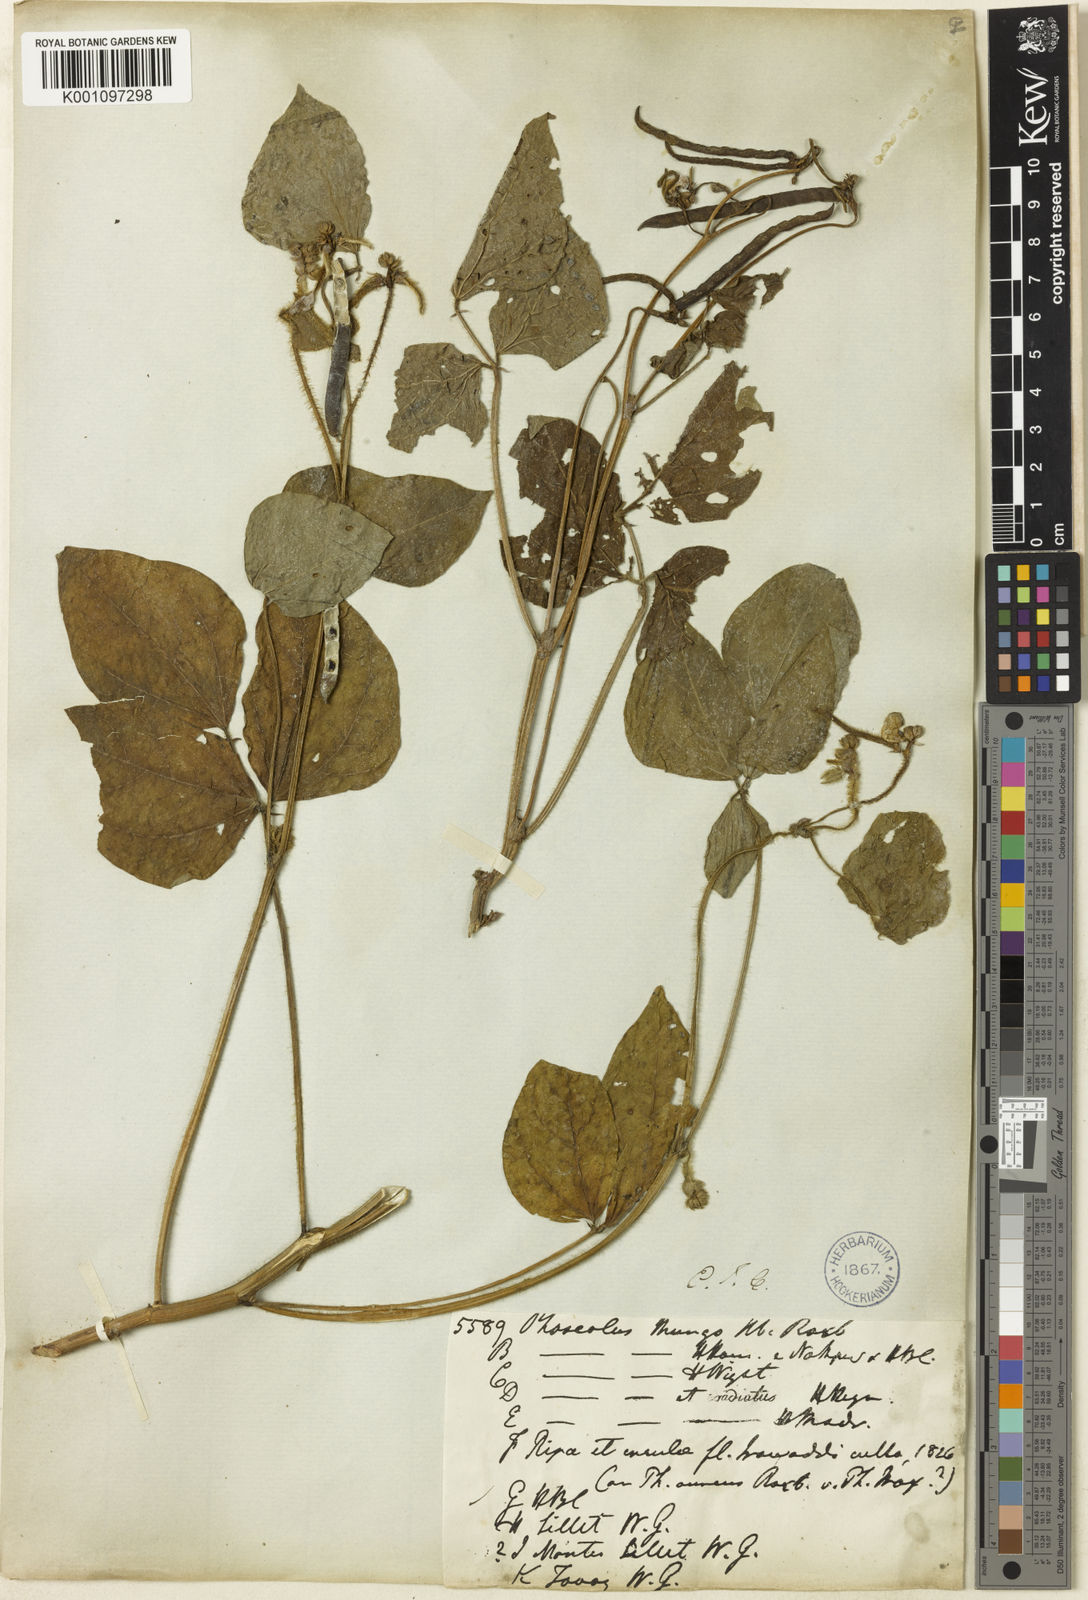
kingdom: Plantae
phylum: Tracheophyta
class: Magnoliopsida
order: Fabales
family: Fabaceae
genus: Vigna
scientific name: Vigna radiata
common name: Mung-bean
